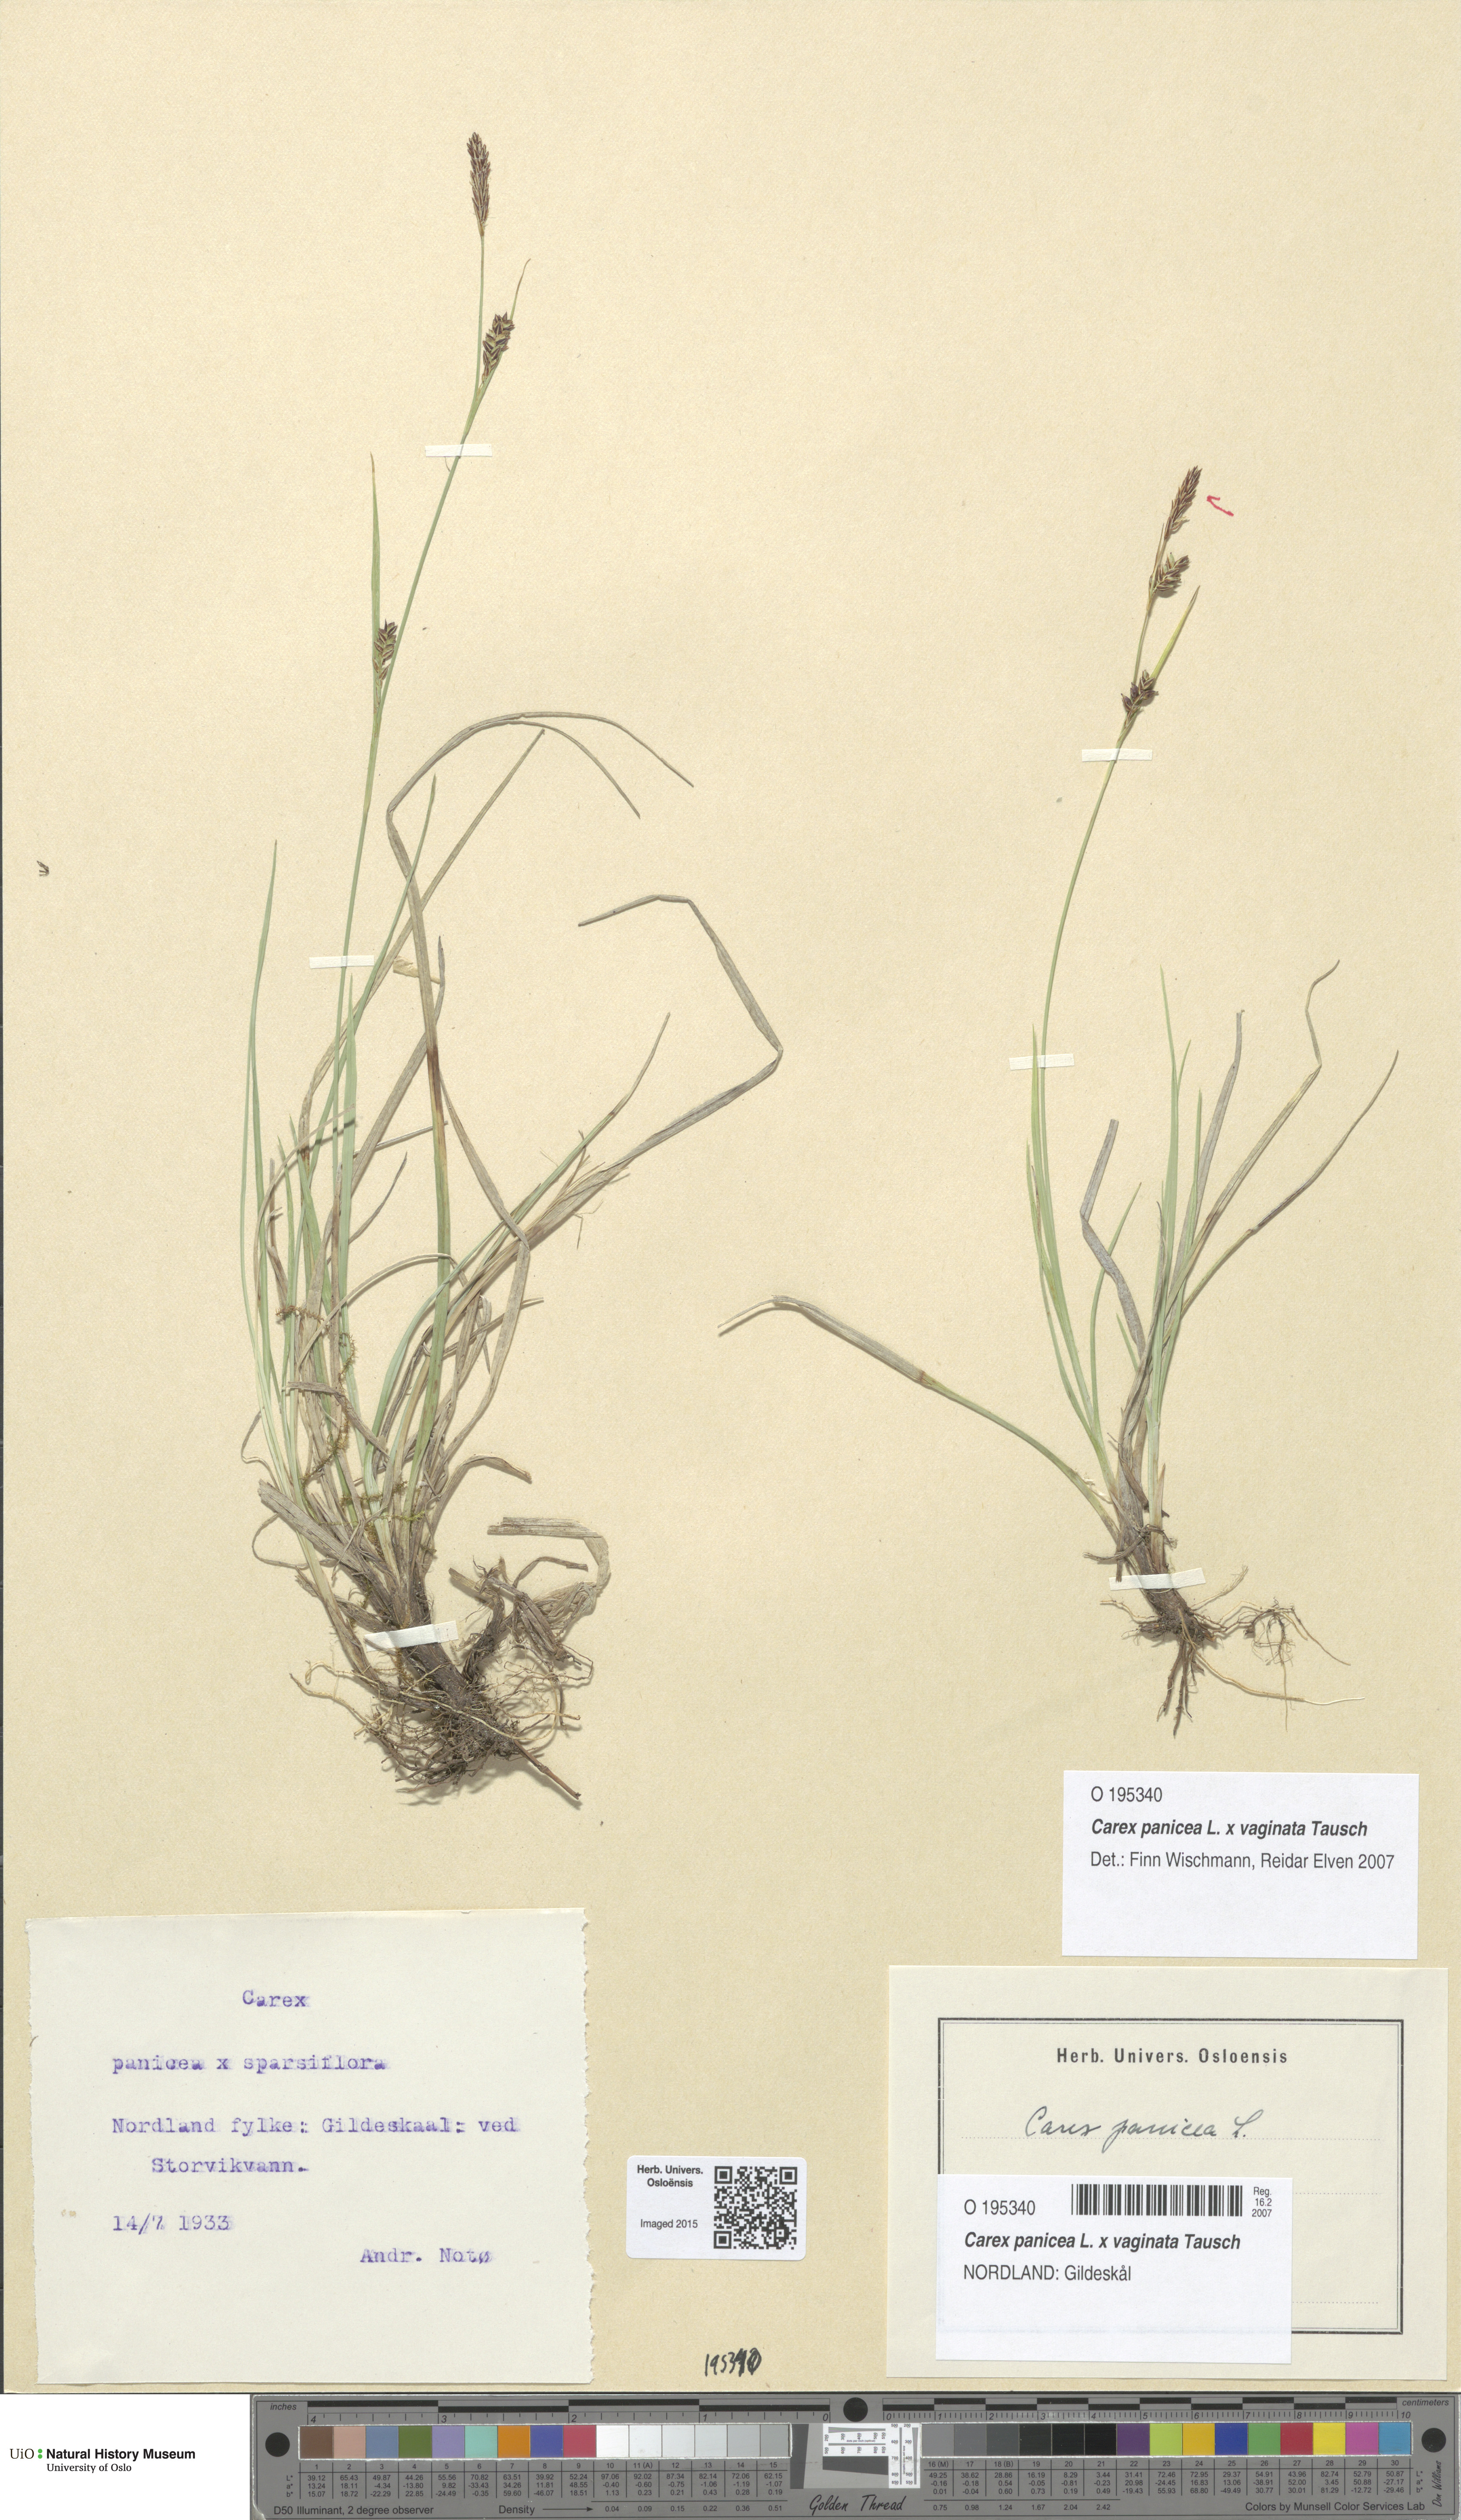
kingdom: Plantae
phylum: Tracheophyta
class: Liliopsida
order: Poales
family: Cyperaceae
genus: Carex
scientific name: Carex
